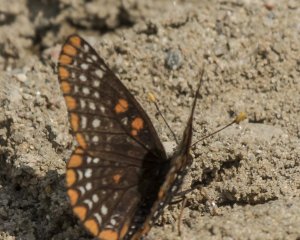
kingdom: Animalia
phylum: Arthropoda
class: Insecta
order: Lepidoptera
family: Nymphalidae
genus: Euphydryas
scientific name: Euphydryas phaeton
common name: Baltimore Checkerspot
